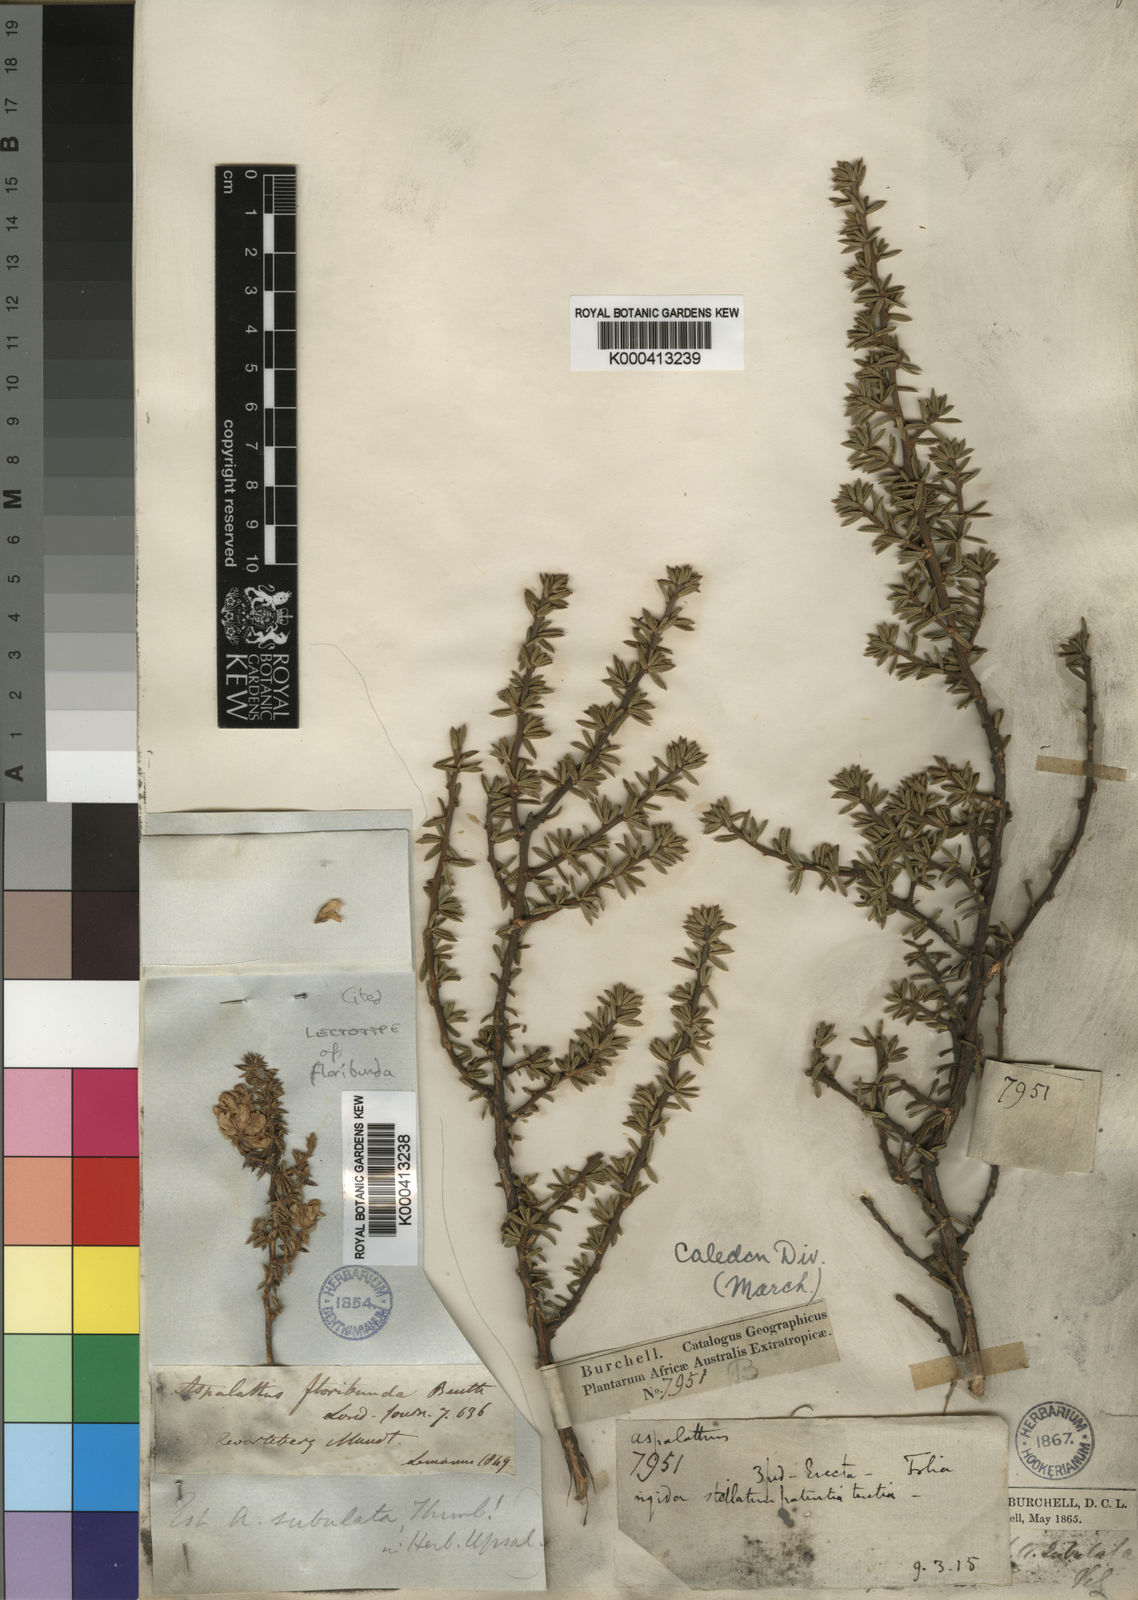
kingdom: Plantae
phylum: Tracheophyta
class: Magnoliopsida
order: Fabales
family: Fabaceae
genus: Aspalathus
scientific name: Aspalathus subulata
